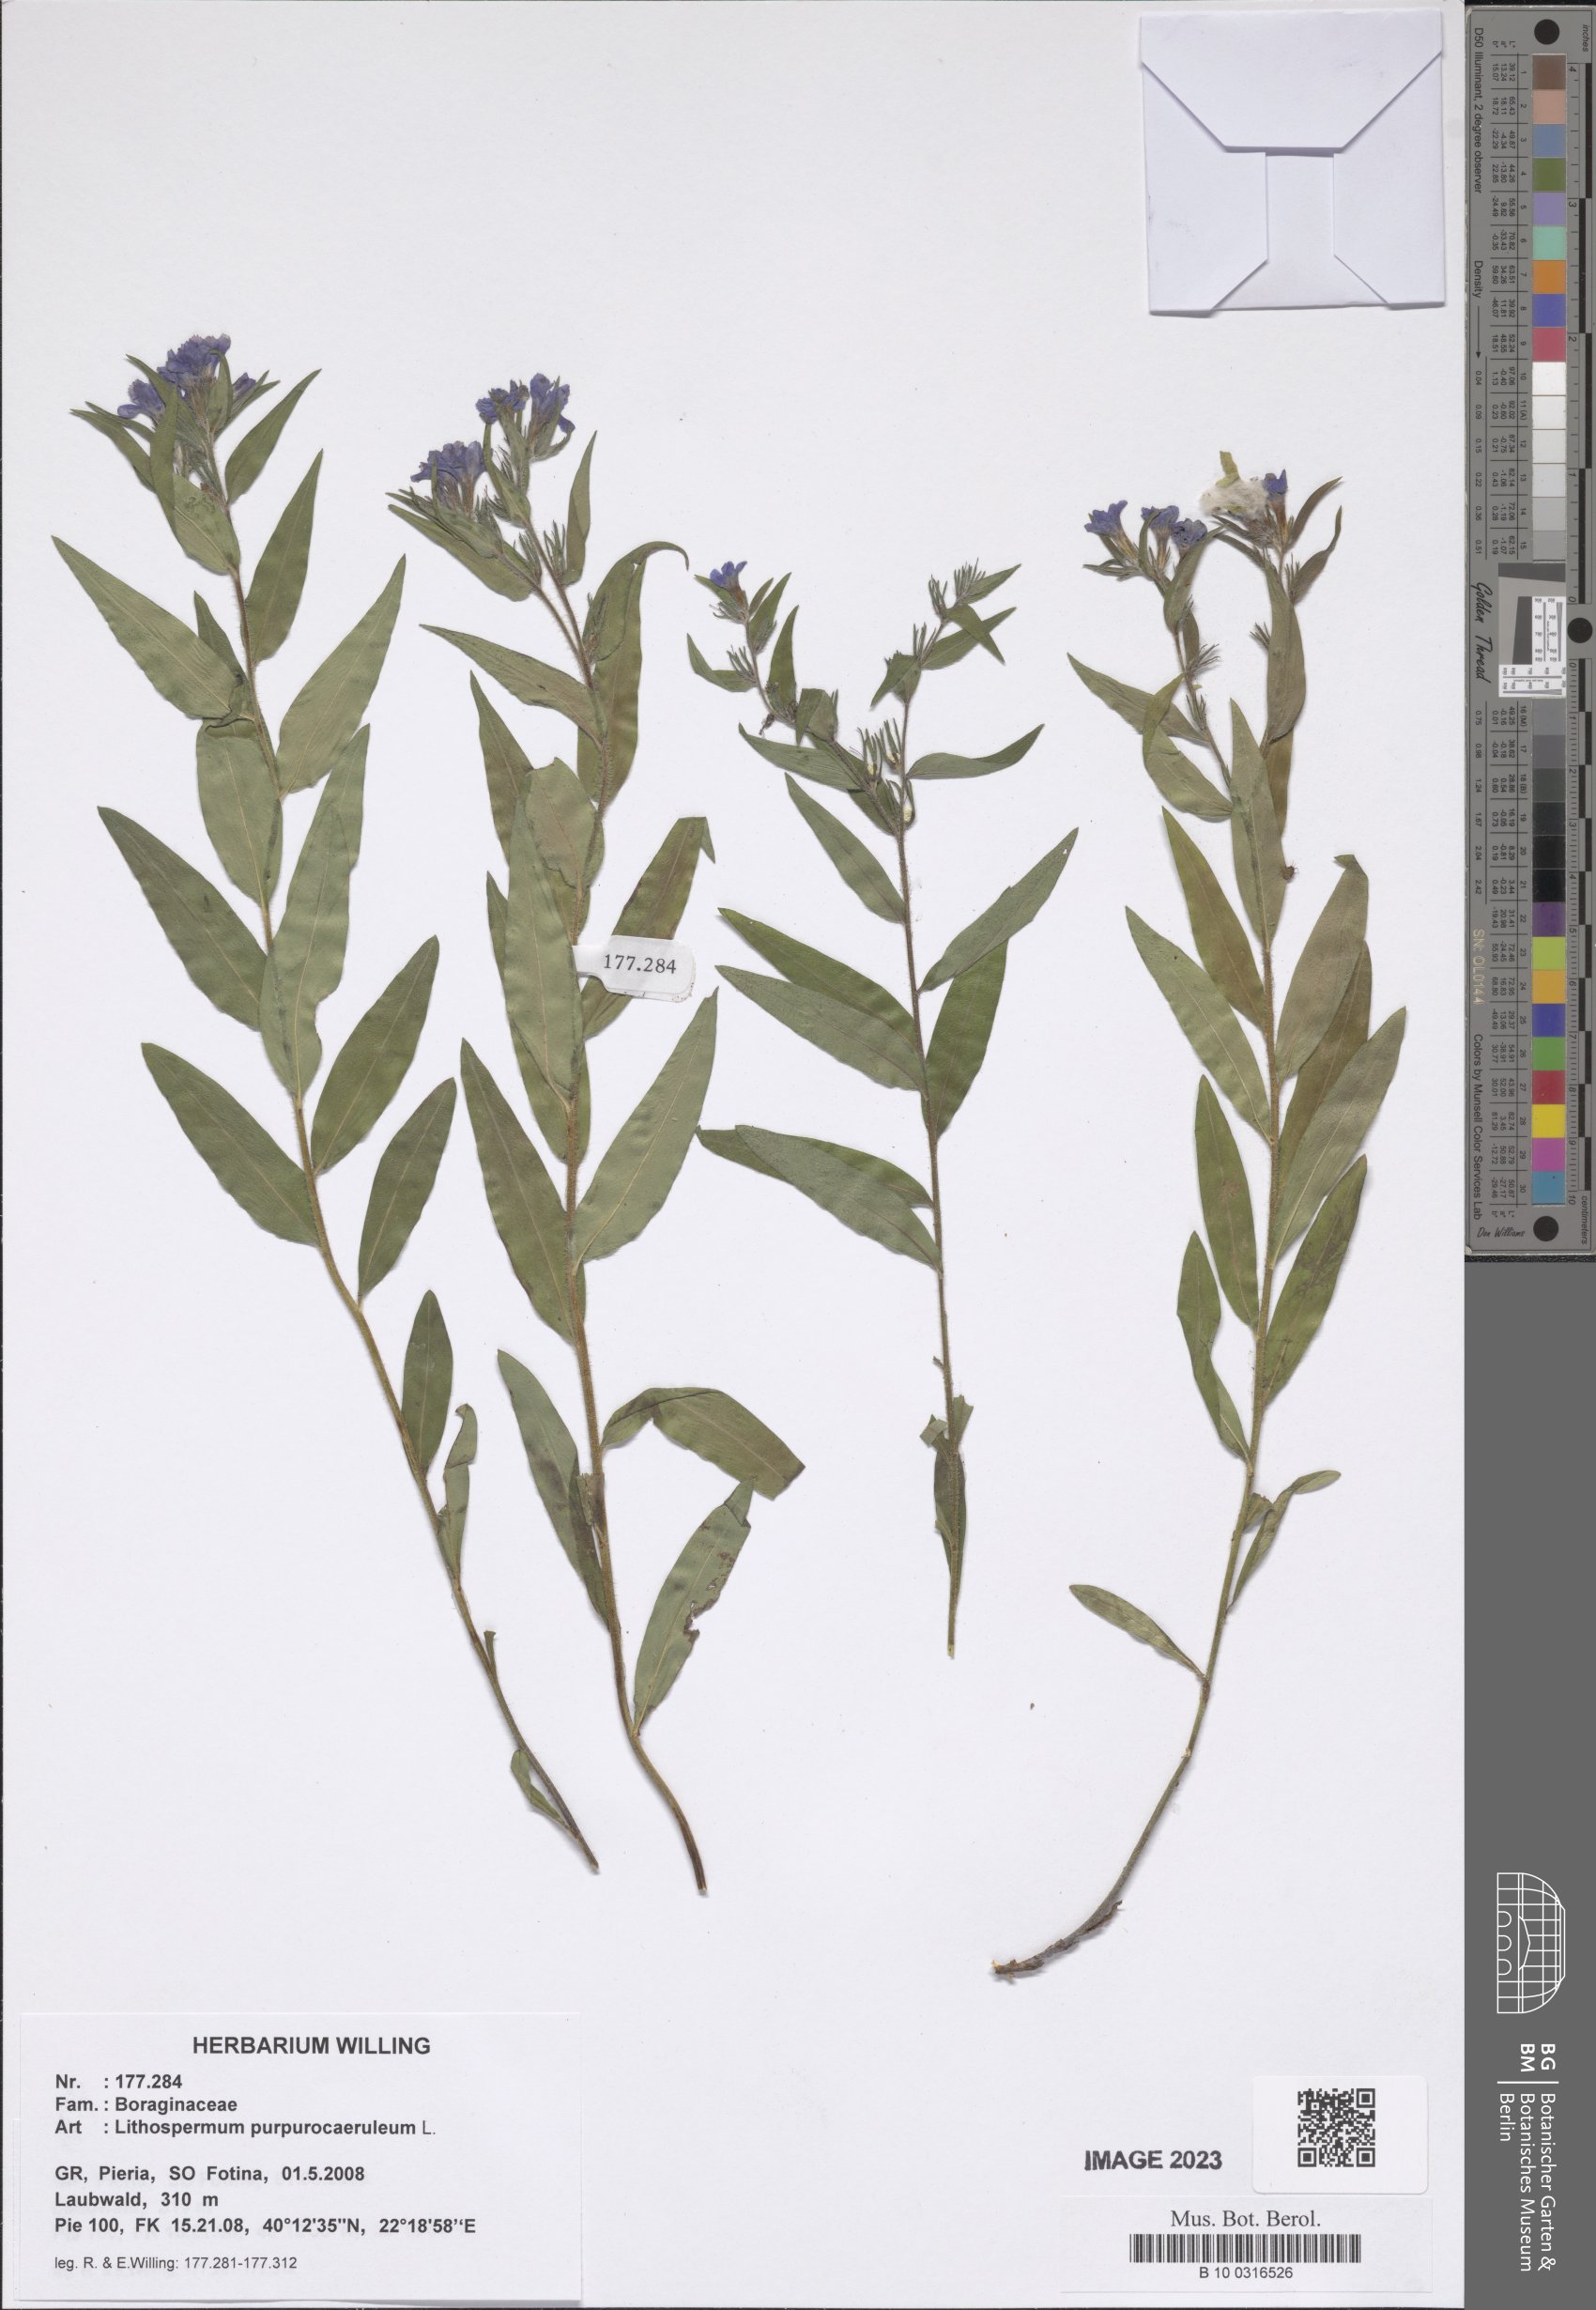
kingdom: Plantae
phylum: Tracheophyta
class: Magnoliopsida
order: Boraginales
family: Boraginaceae
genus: Aegonychon
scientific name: Aegonychon purpurocaeruleum
